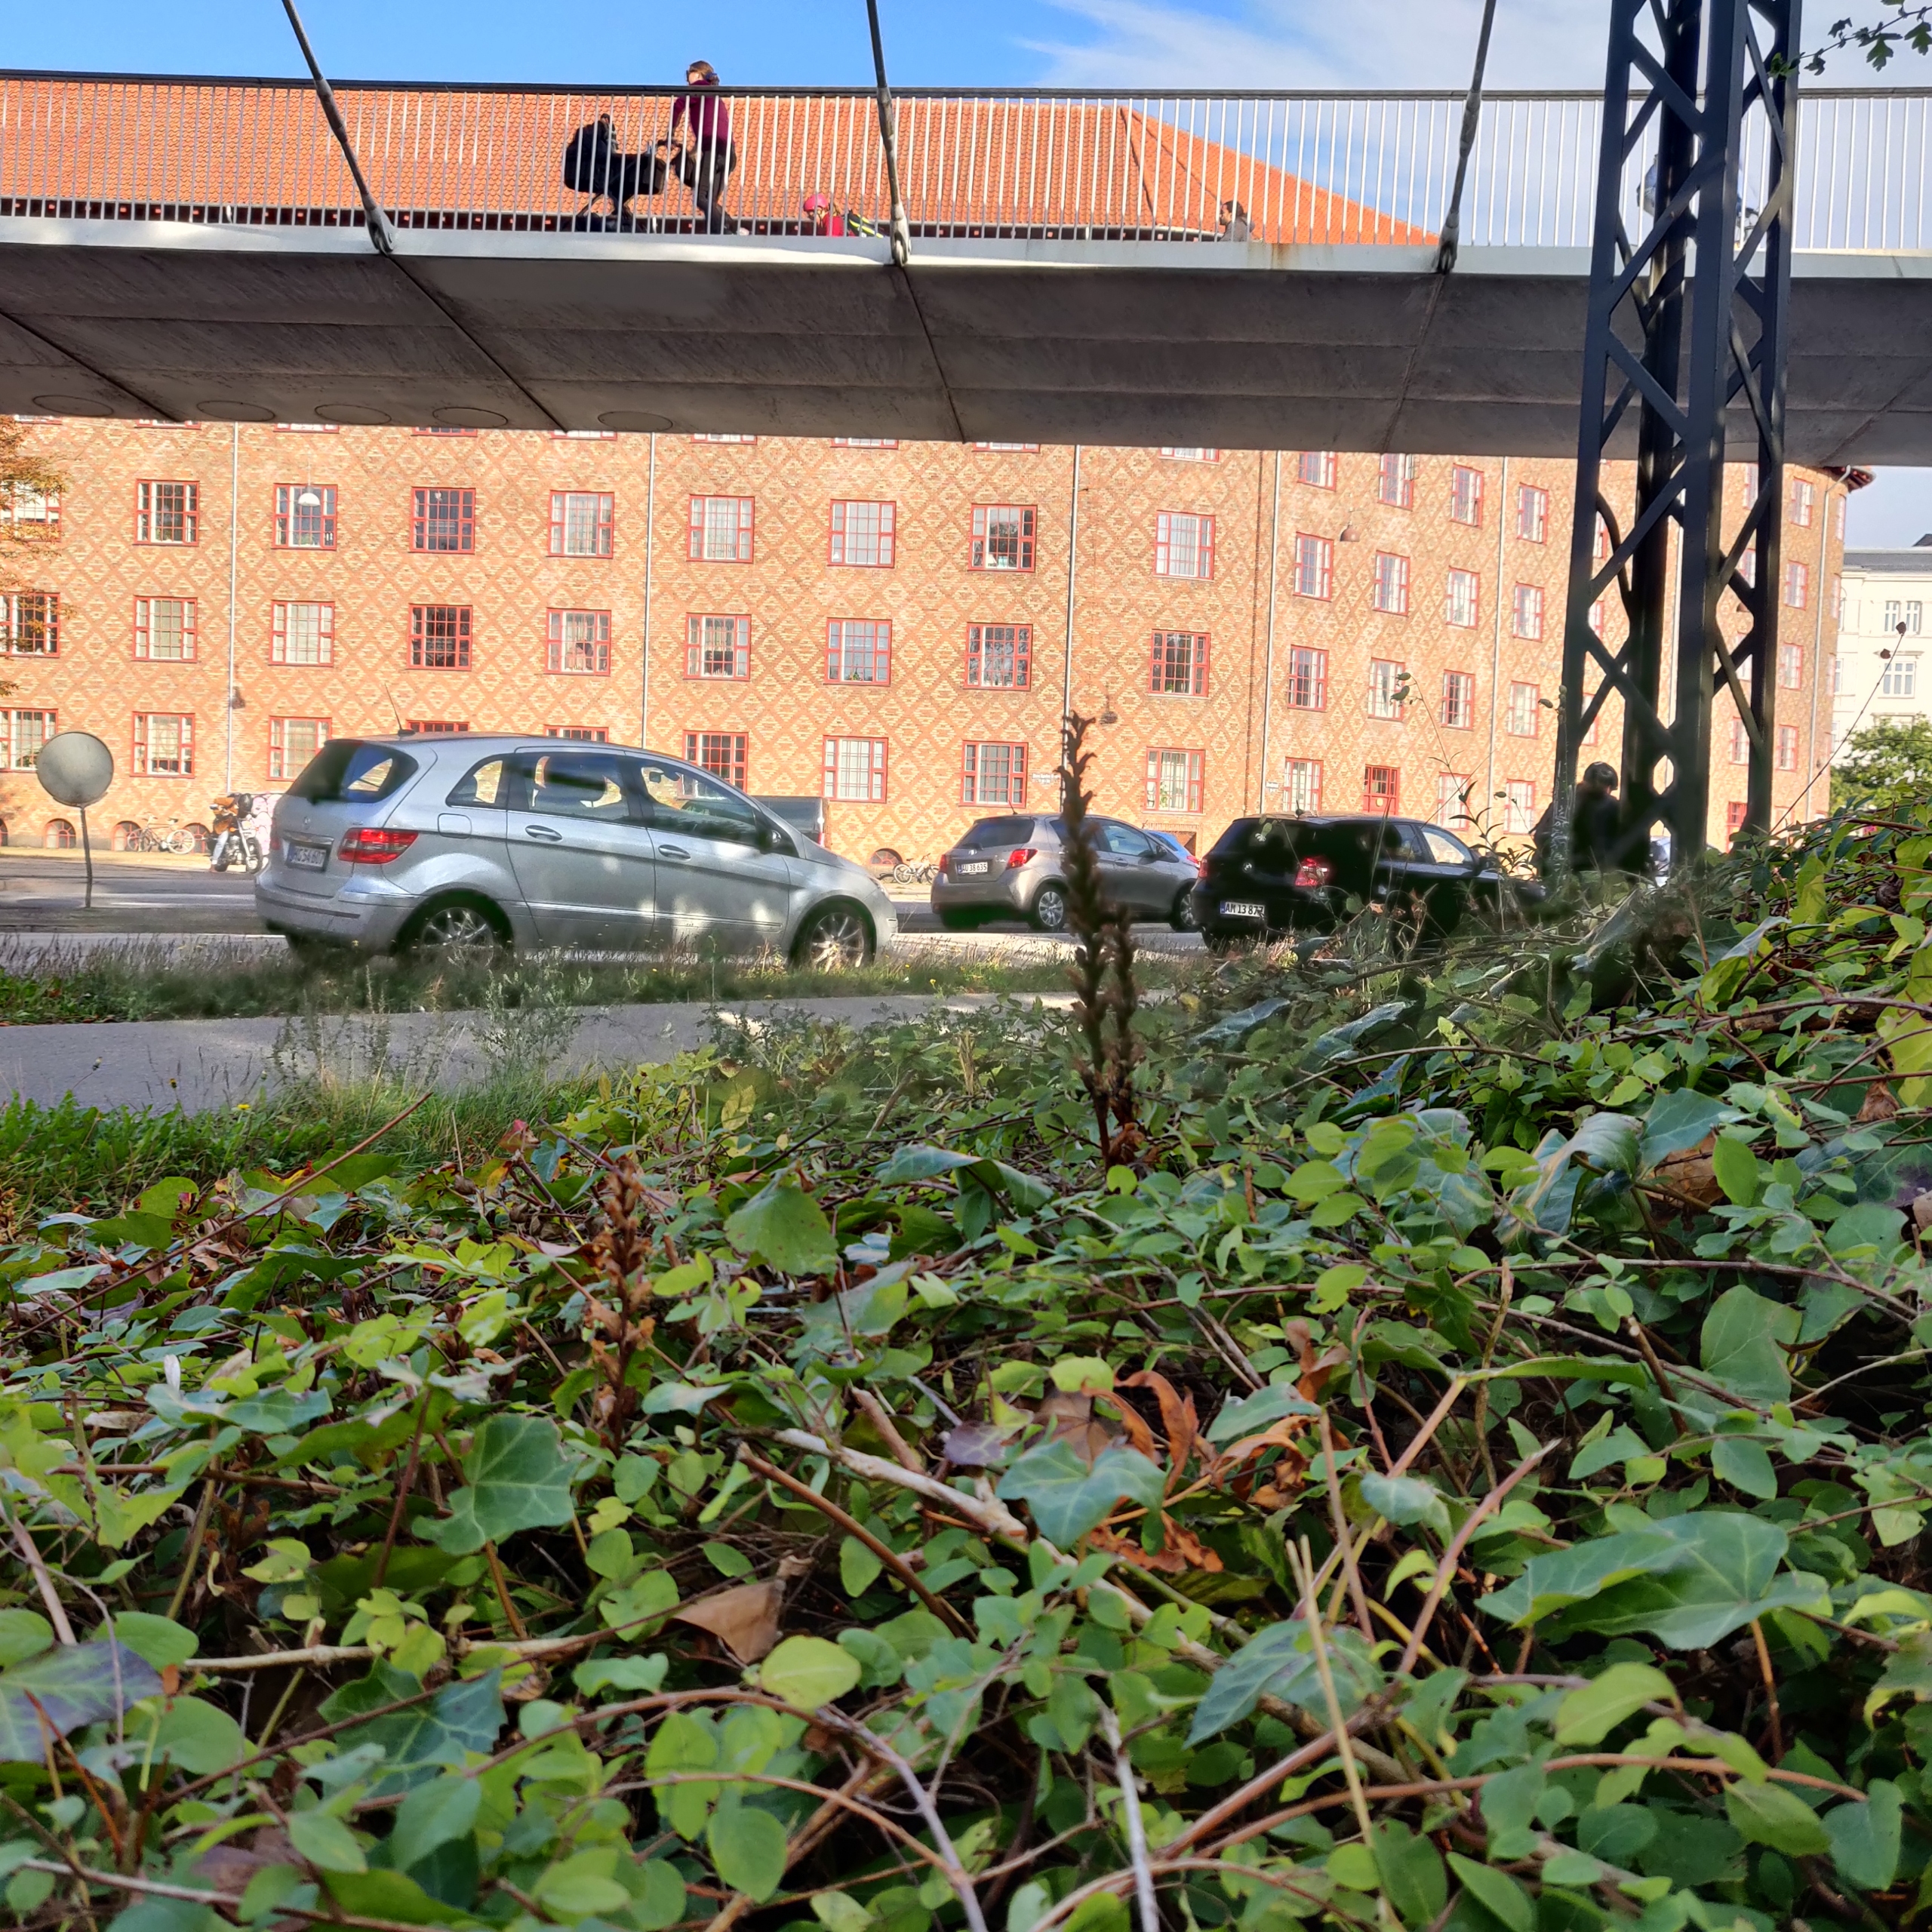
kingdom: Plantae
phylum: Tracheophyta
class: Magnoliopsida
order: Lamiales
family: Orobanchaceae
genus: Orobanche
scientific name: Orobanche hederae
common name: Vedbend-gyvelkvæler
